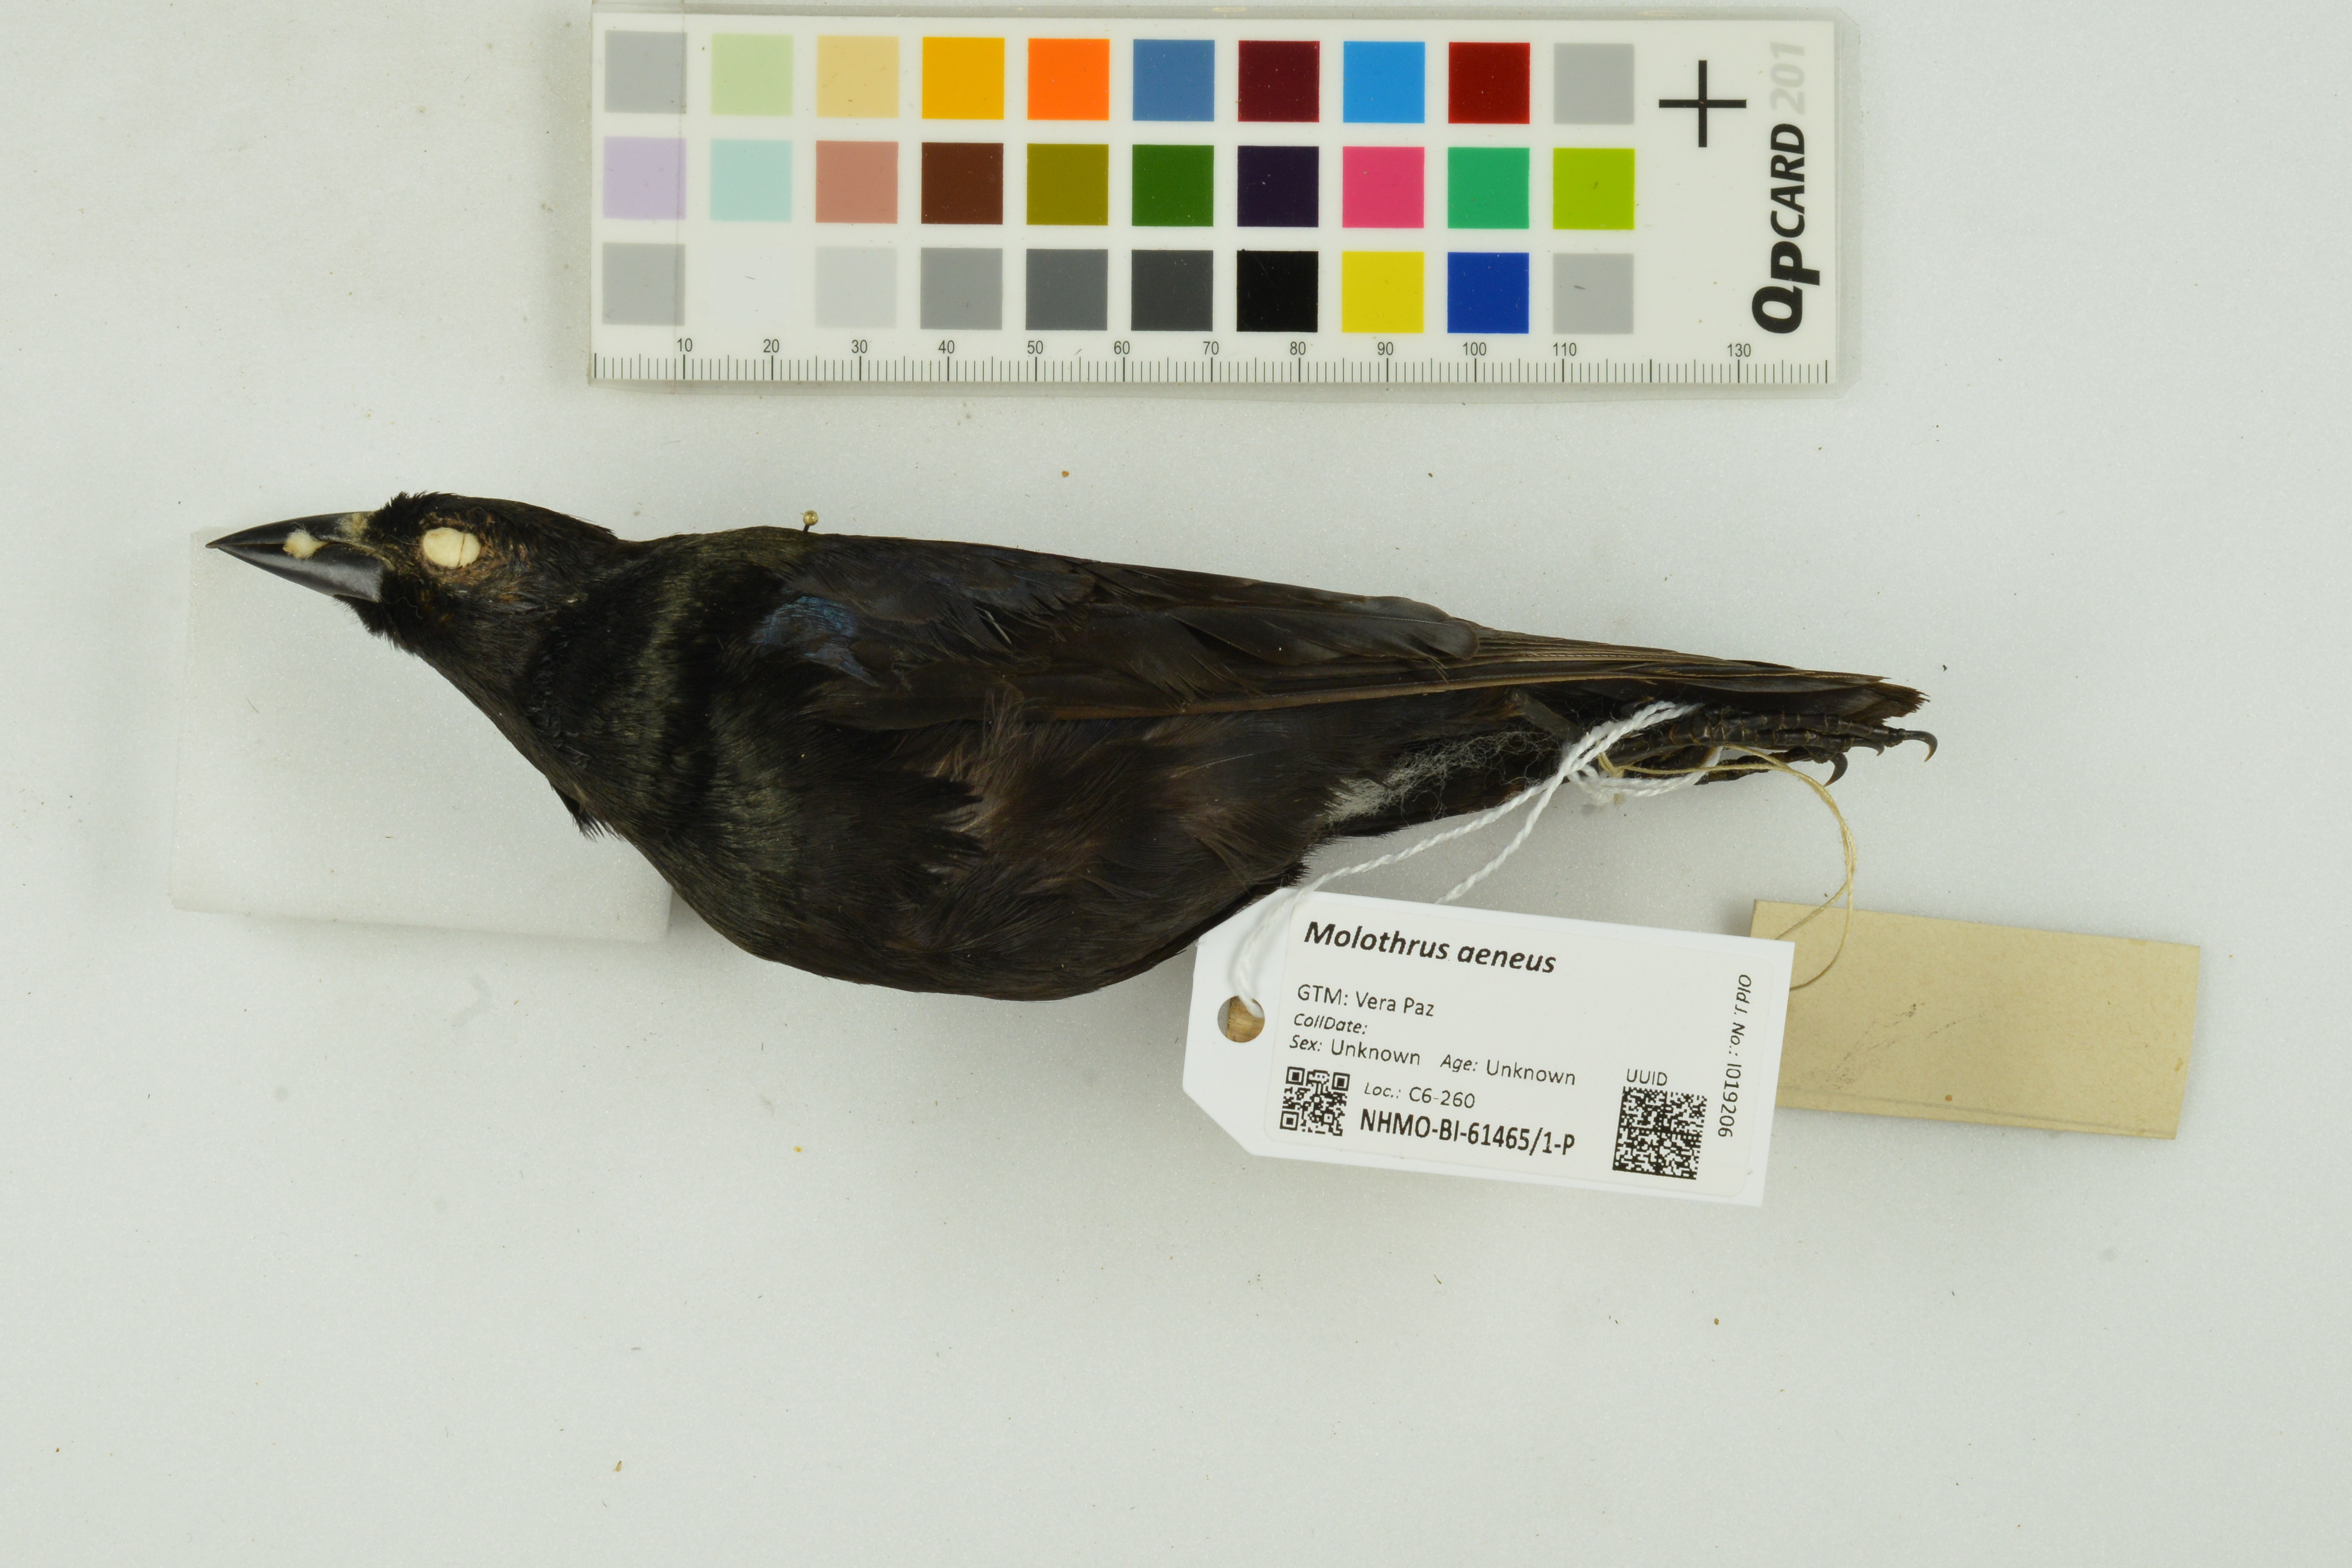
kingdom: Animalia
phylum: Chordata
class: Aves
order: Passeriformes
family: Icteridae
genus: Molothrus
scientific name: Molothrus aeneus
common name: Bronzed cowbird
